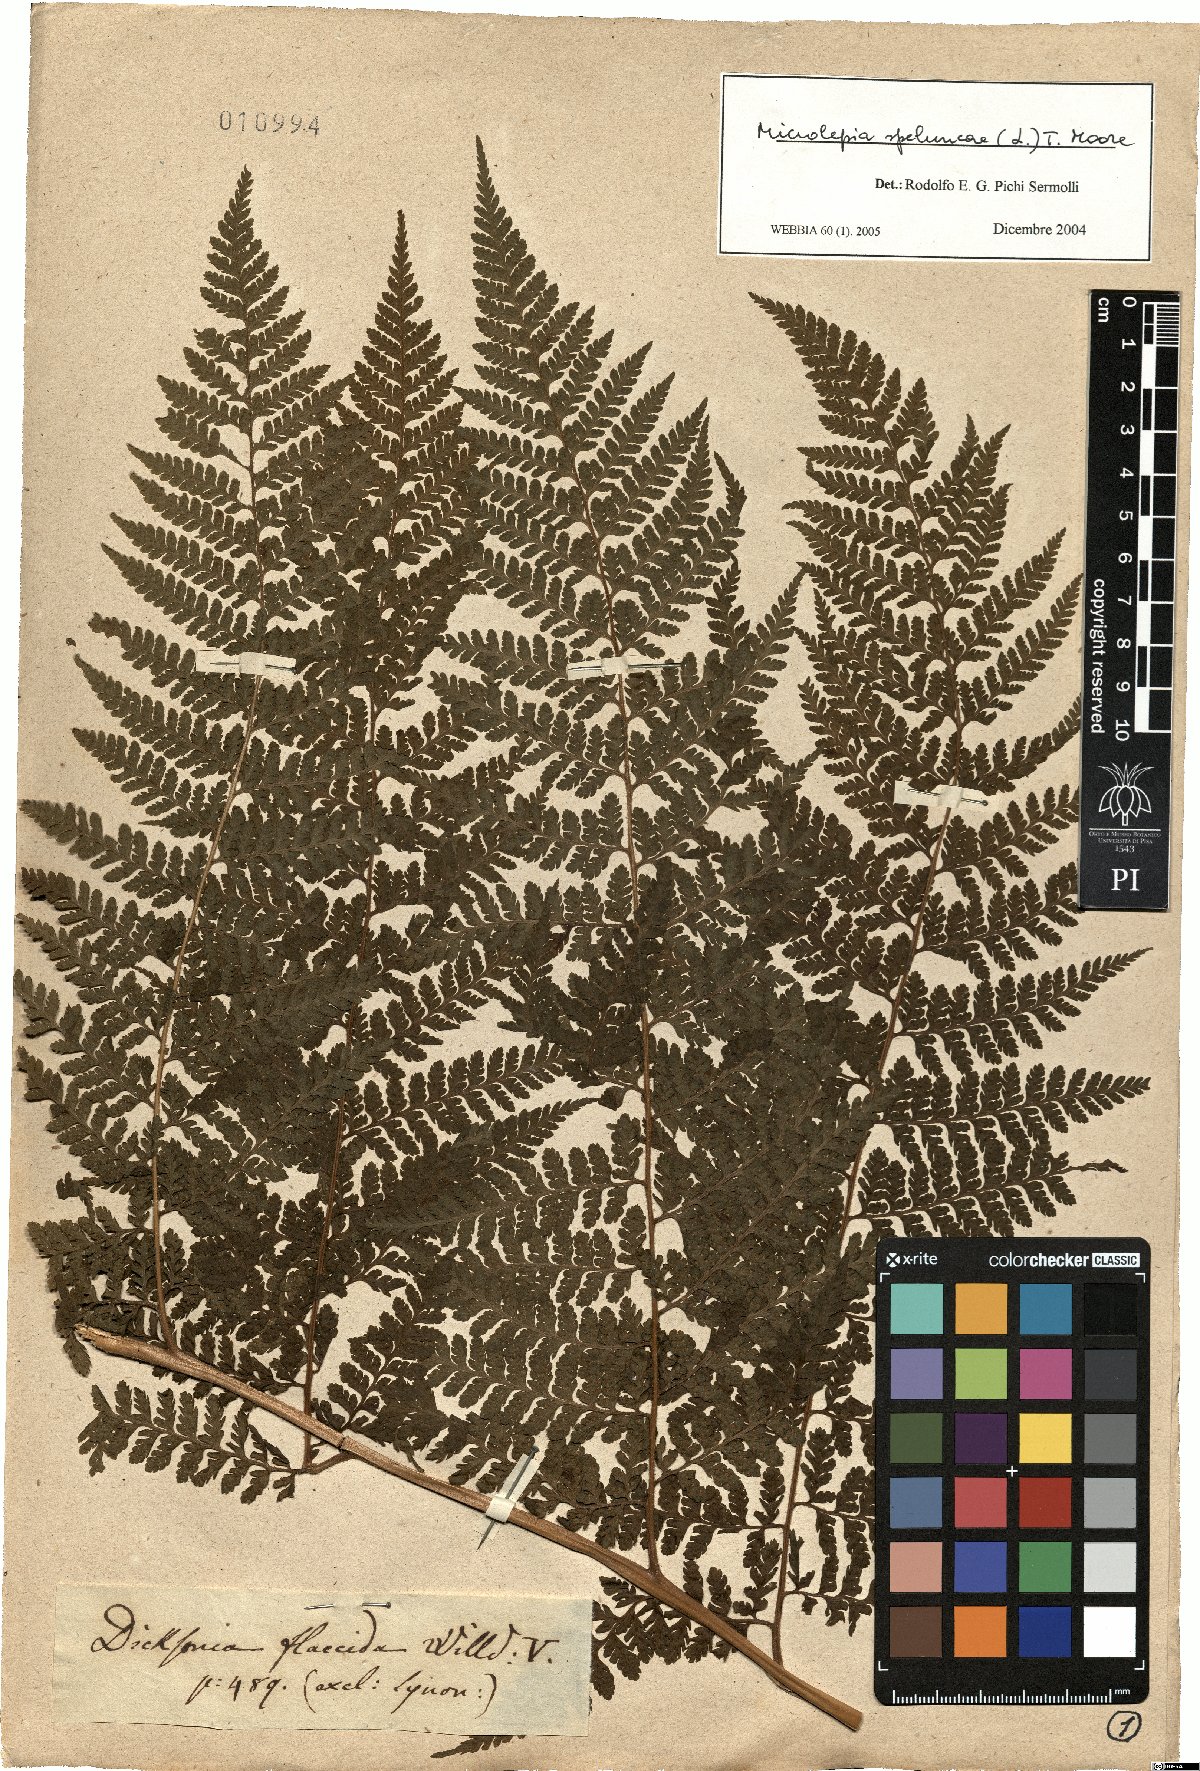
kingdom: Plantae
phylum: Tracheophyta
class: Polypodiopsida
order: Polypodiales
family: Dennstaedtiaceae
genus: Microlepia
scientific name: Microlepia speluncae
